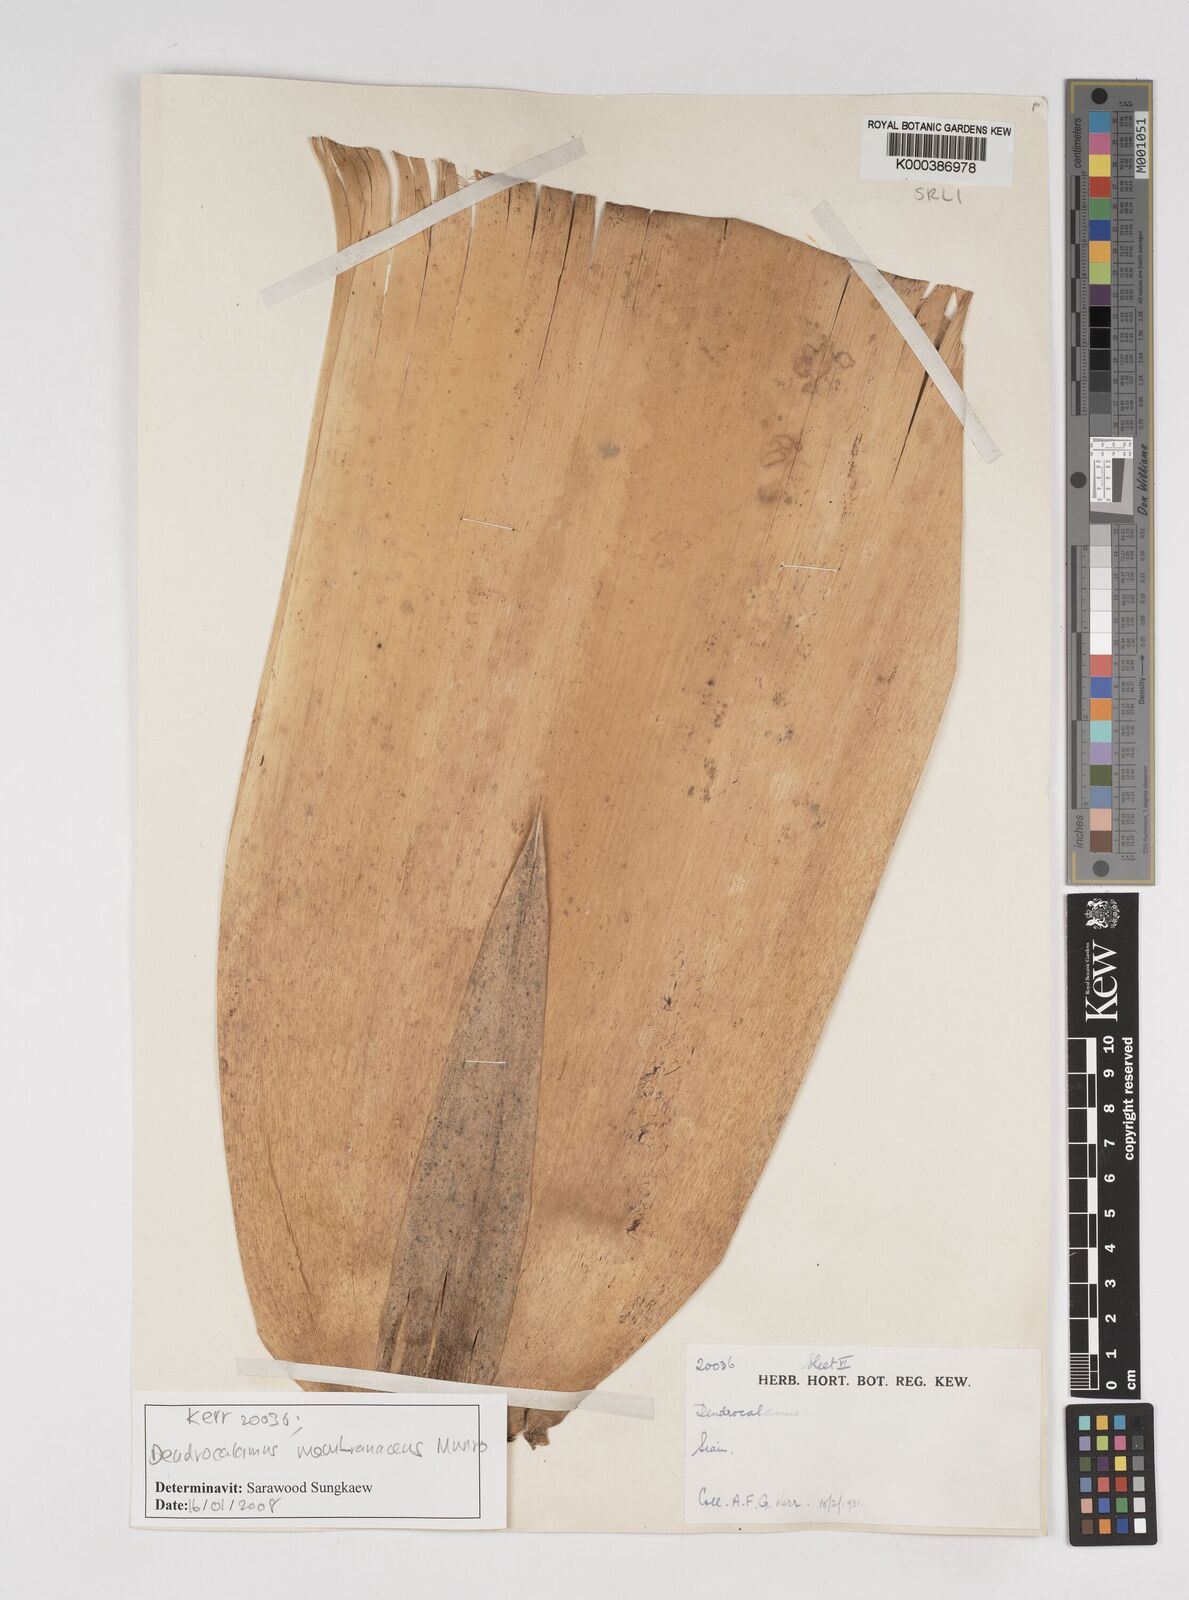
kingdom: Plantae
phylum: Tracheophyta
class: Liliopsida
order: Poales
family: Poaceae
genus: Dendrocalamus
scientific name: Dendrocalamus membranaceus
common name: White bamboo
